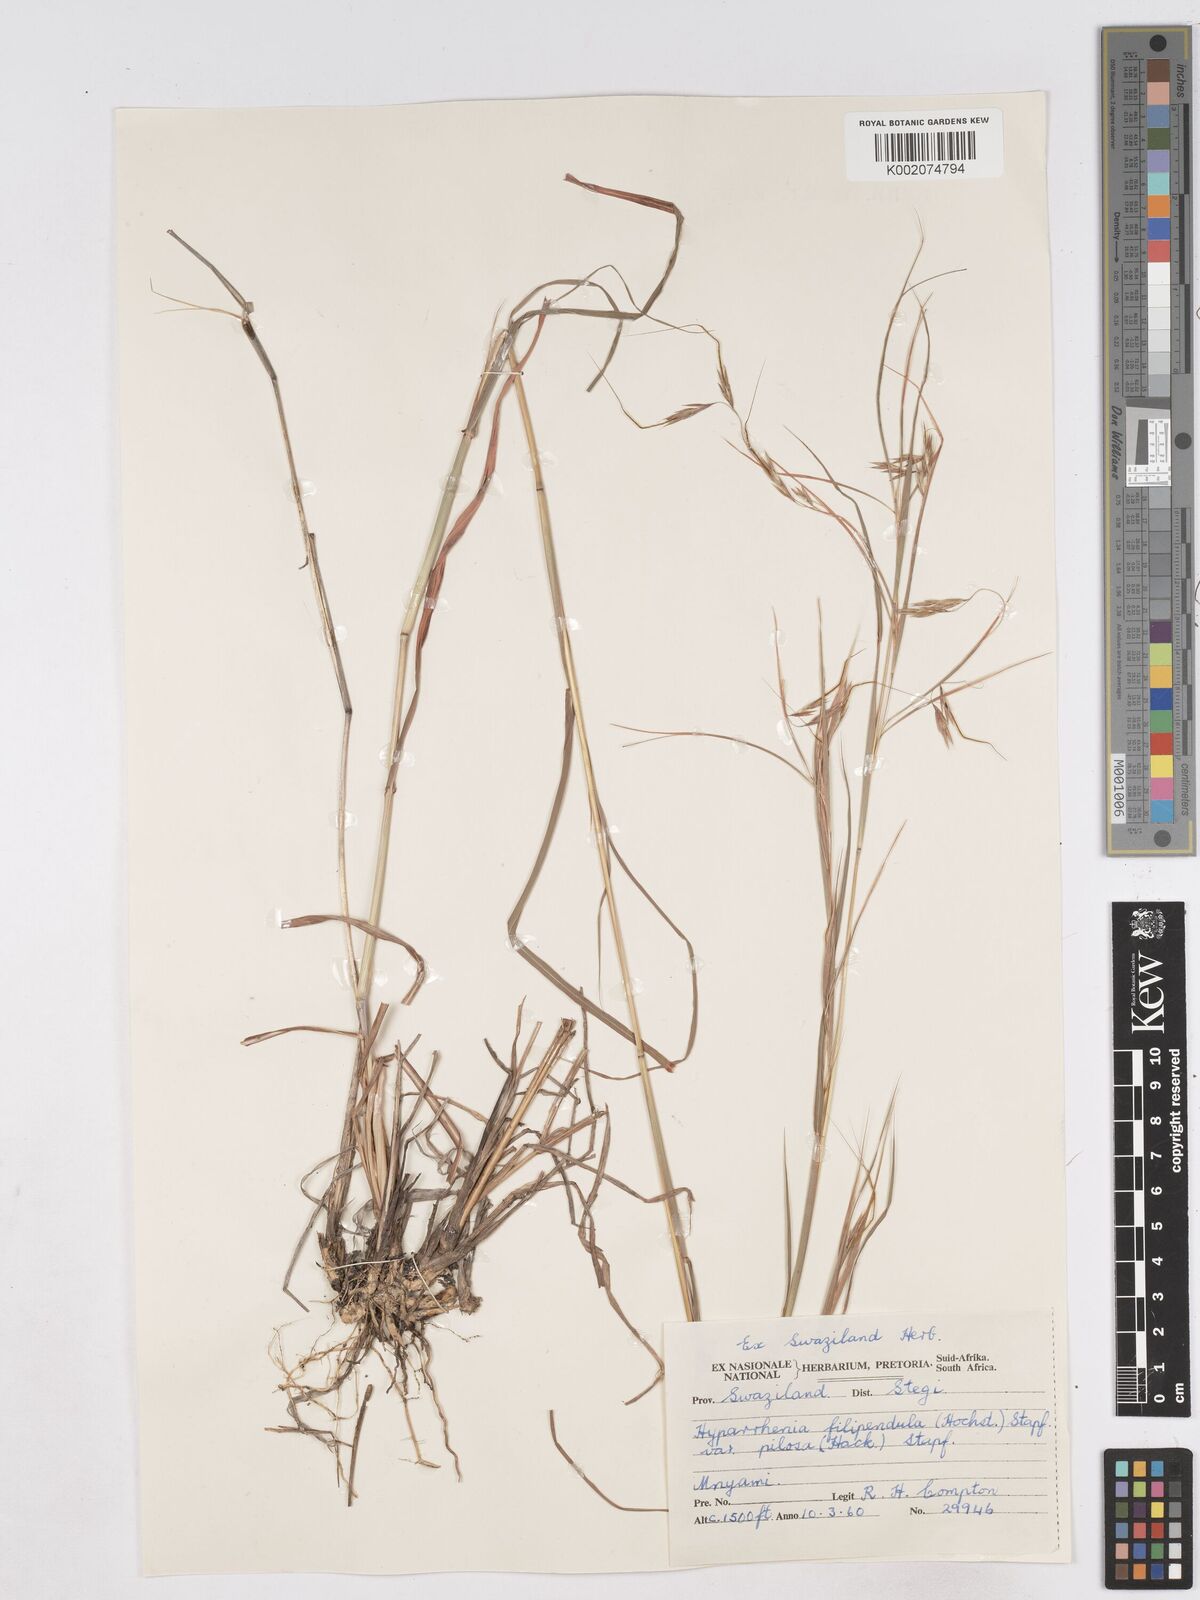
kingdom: Plantae
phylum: Tracheophyta
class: Liliopsida
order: Poales
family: Poaceae
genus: Hyparrhenia
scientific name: Hyparrhenia filipendula
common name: Tambookie grass
